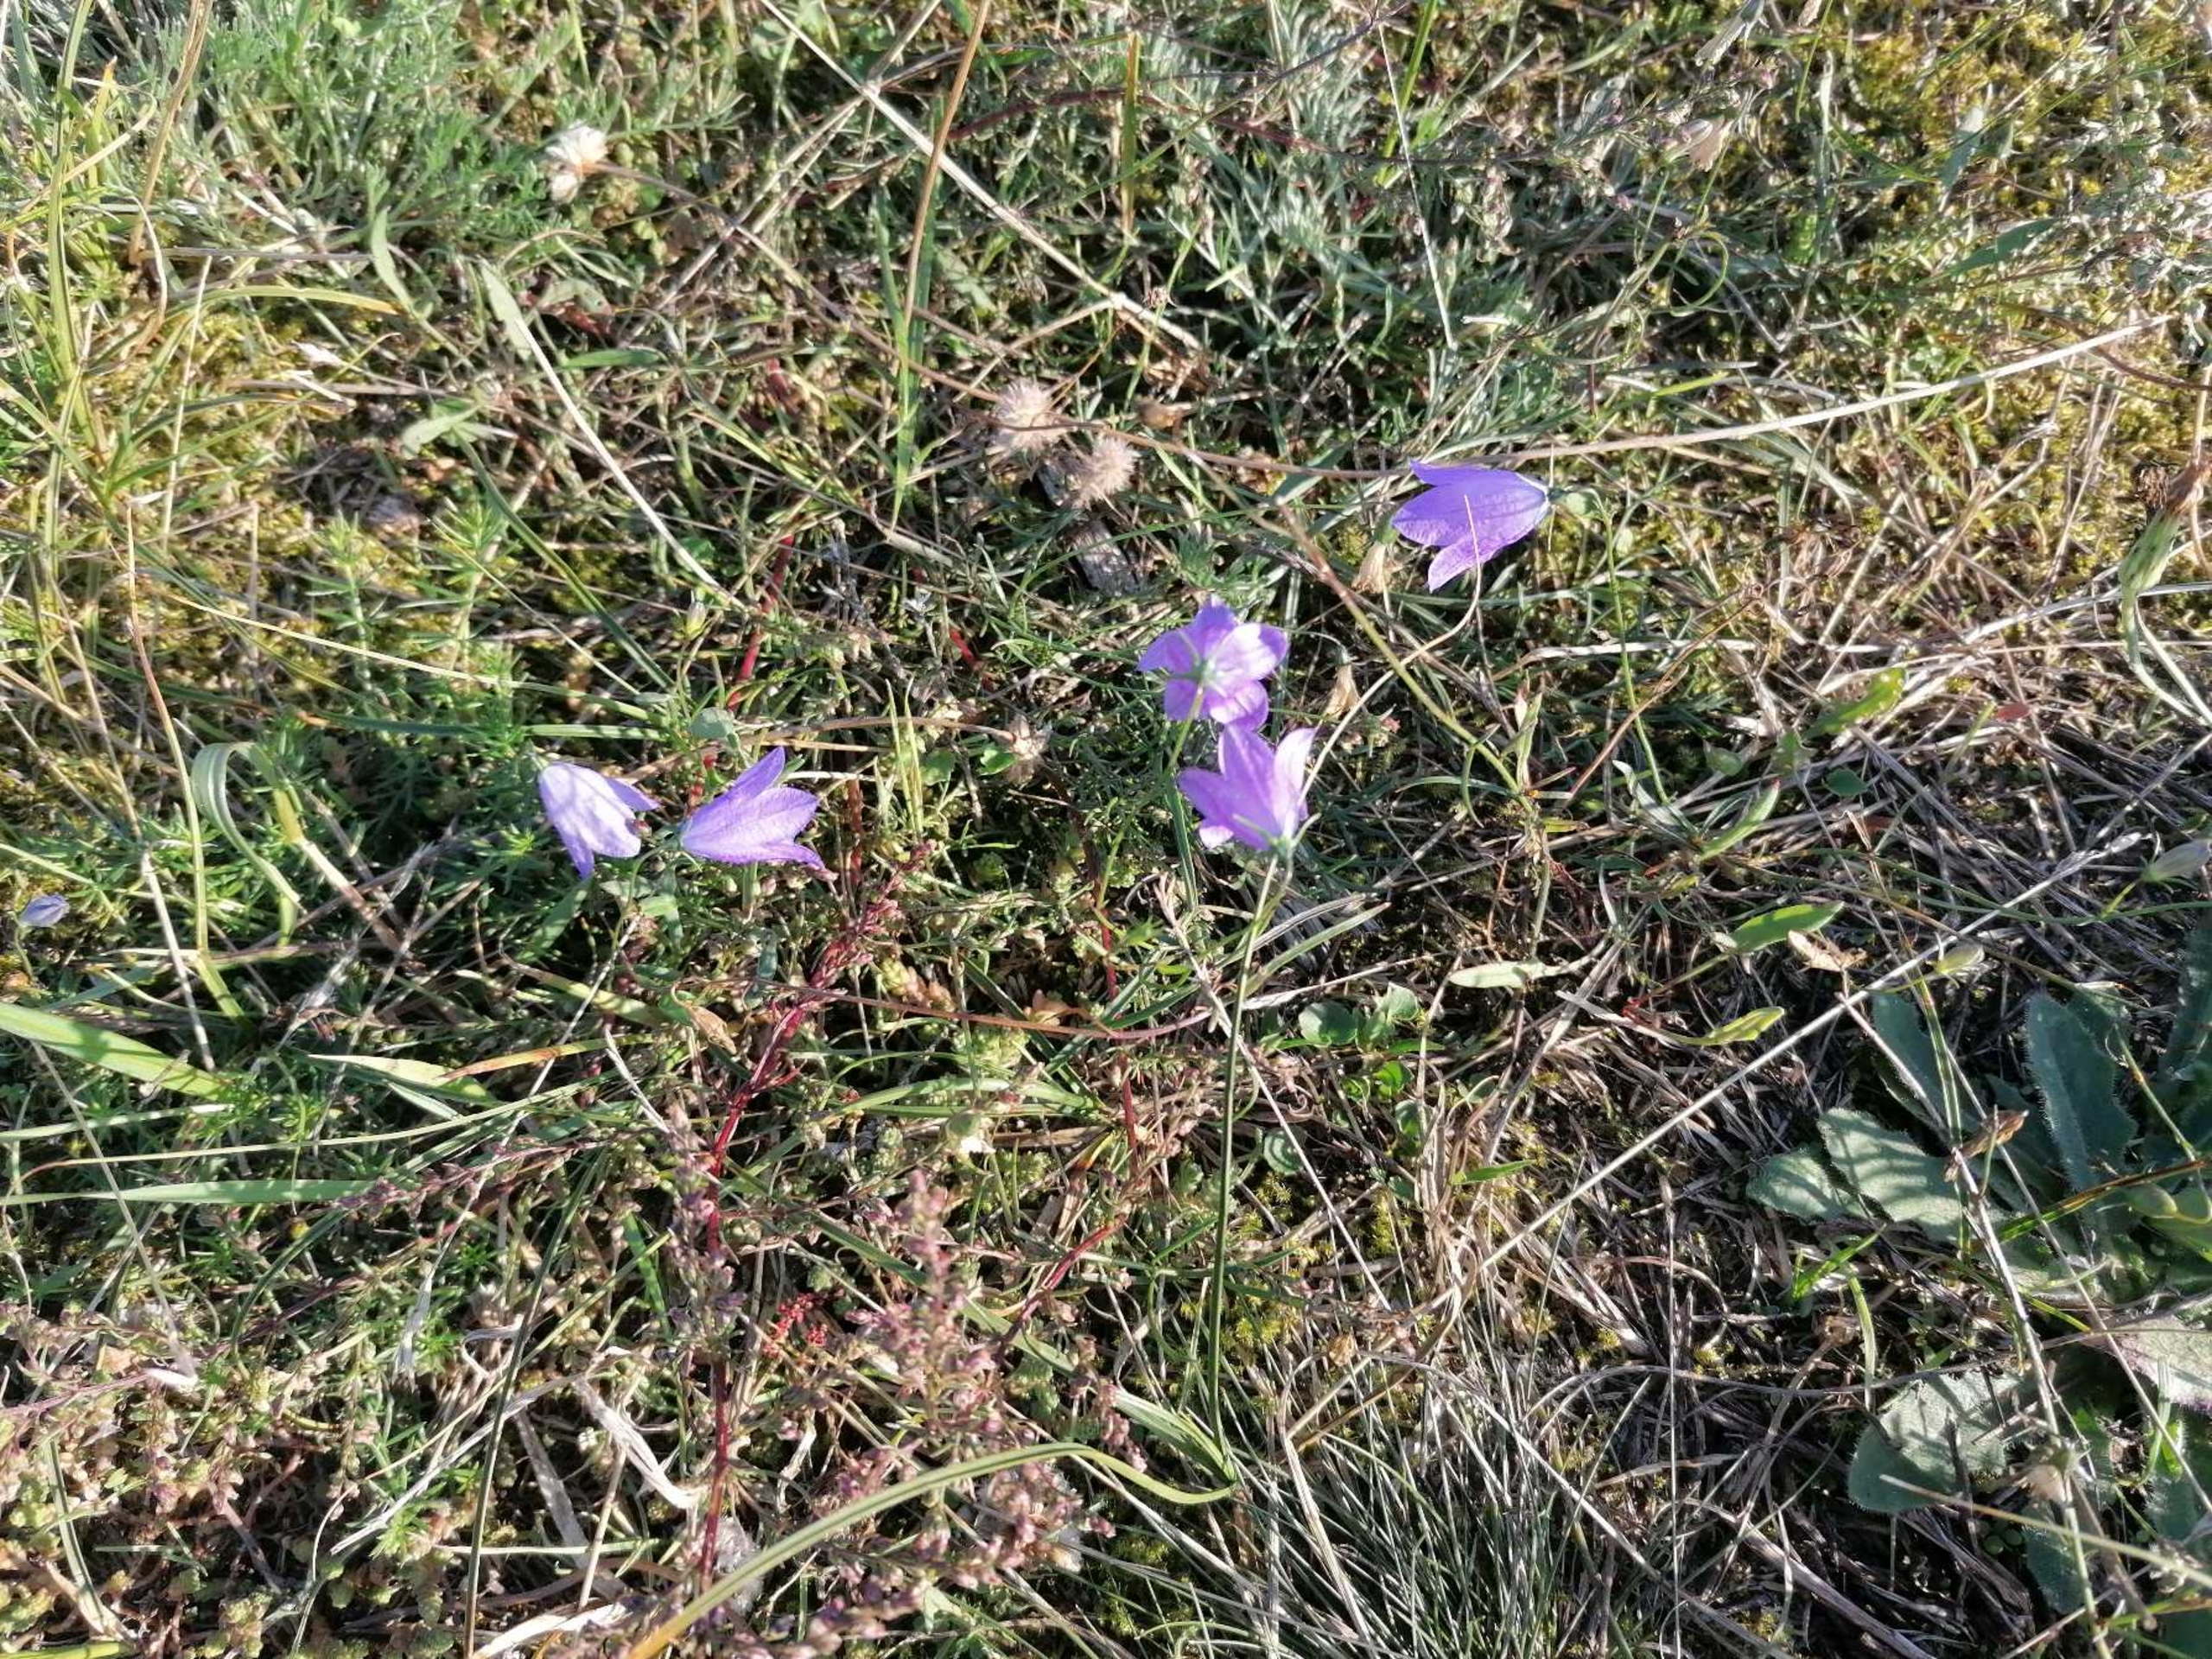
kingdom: Plantae
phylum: Tracheophyta
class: Magnoliopsida
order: Asterales
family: Campanulaceae
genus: Campanula
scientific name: Campanula rotundifolia
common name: Liden klokke
